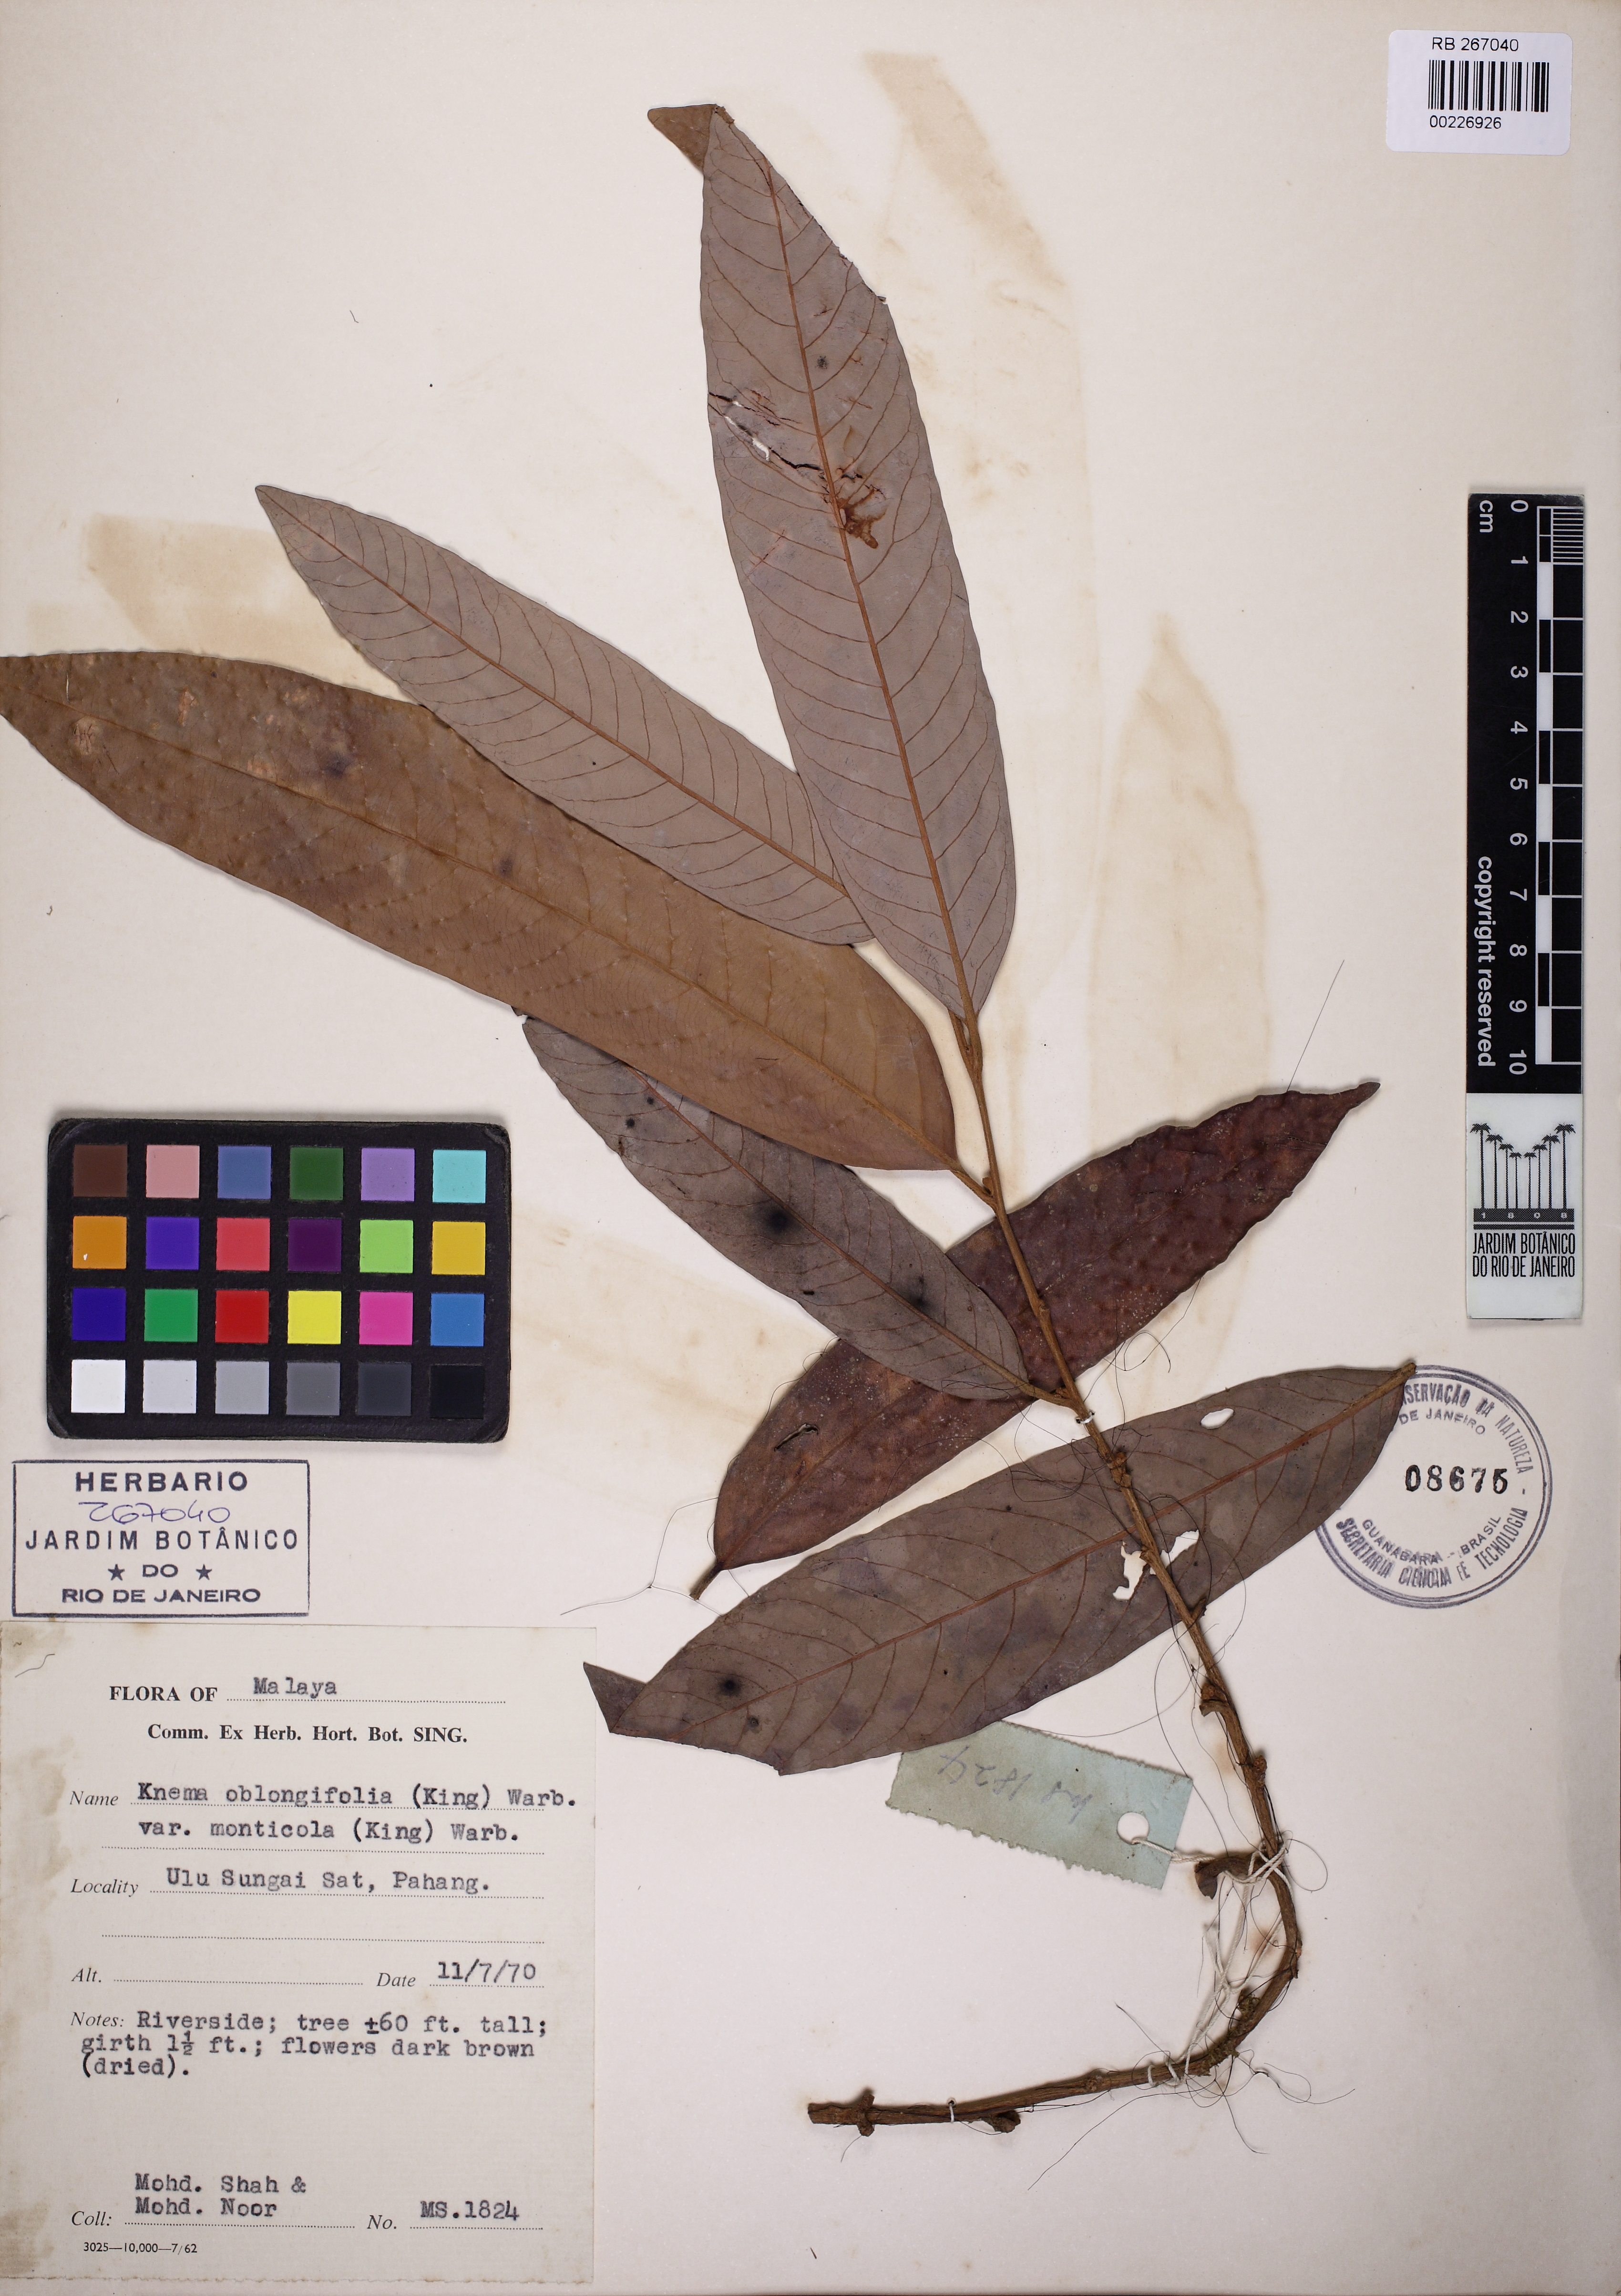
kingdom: Plantae
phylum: Tracheophyta
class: Magnoliopsida
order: Magnoliales
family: Myristicaceae
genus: Knema
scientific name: Knema oblongifolia
